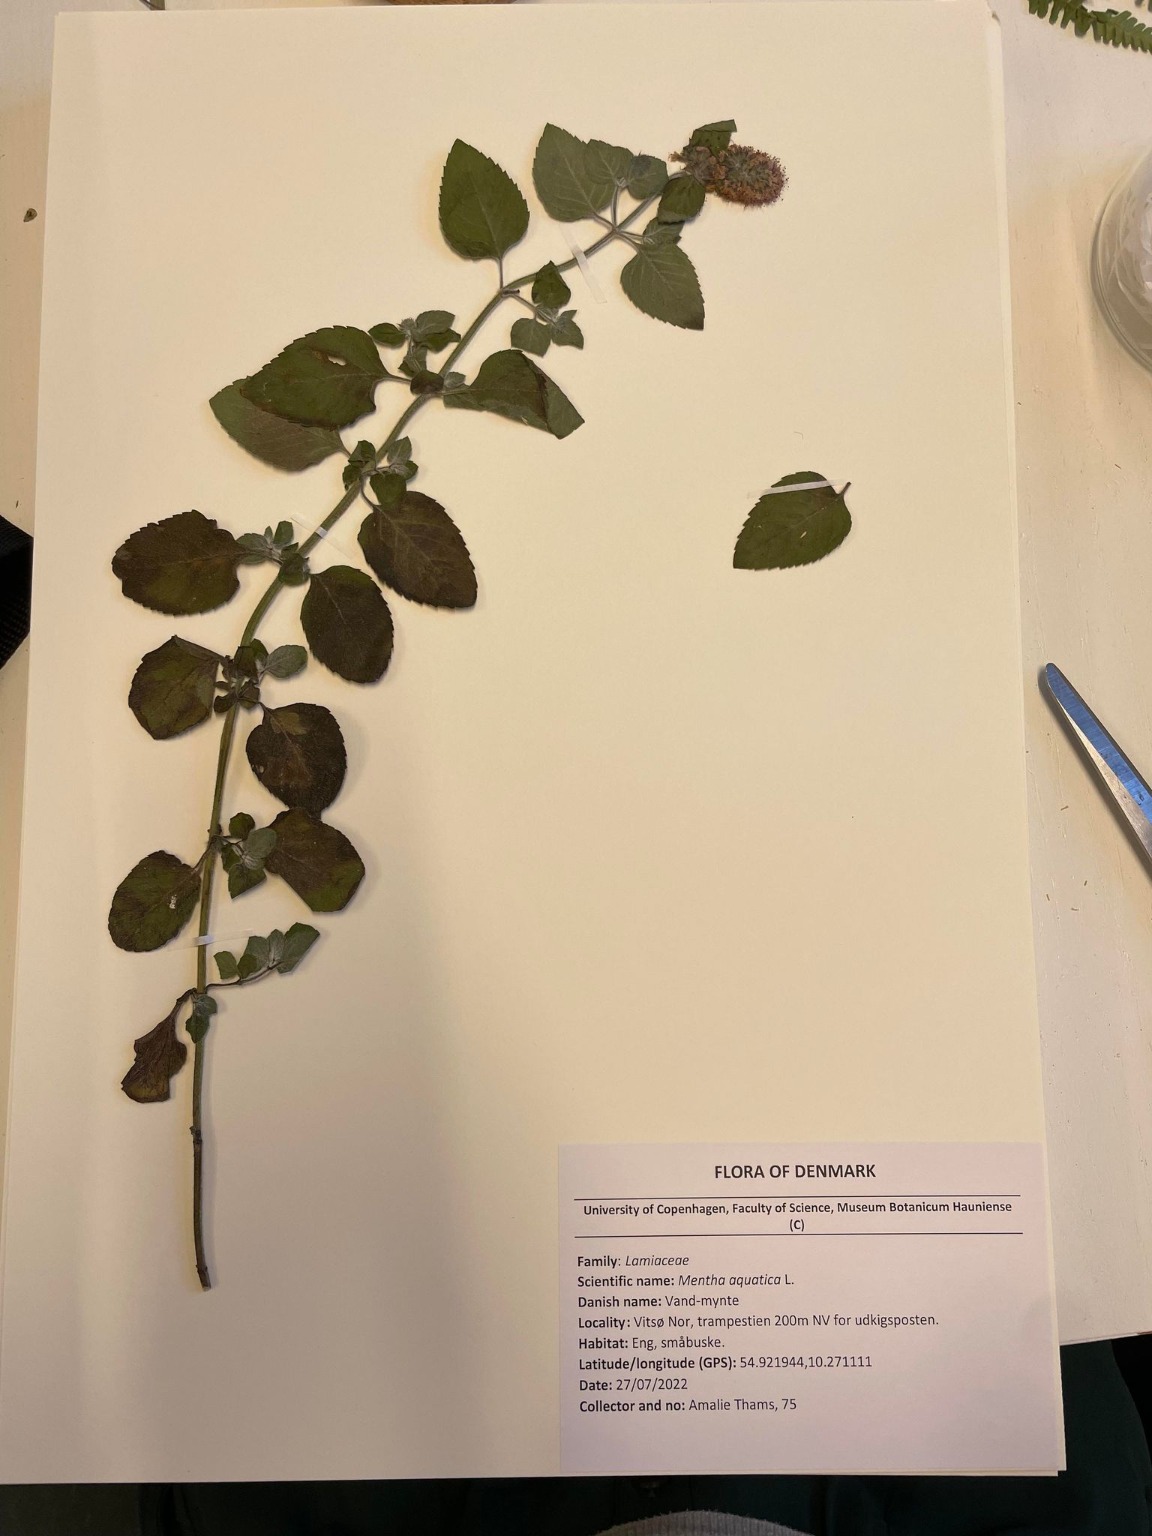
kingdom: Plantae
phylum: Tracheophyta
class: Magnoliopsida
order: Lamiales
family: Lamiaceae
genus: Mentha
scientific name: Mentha aquatica
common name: Vand-mynte
